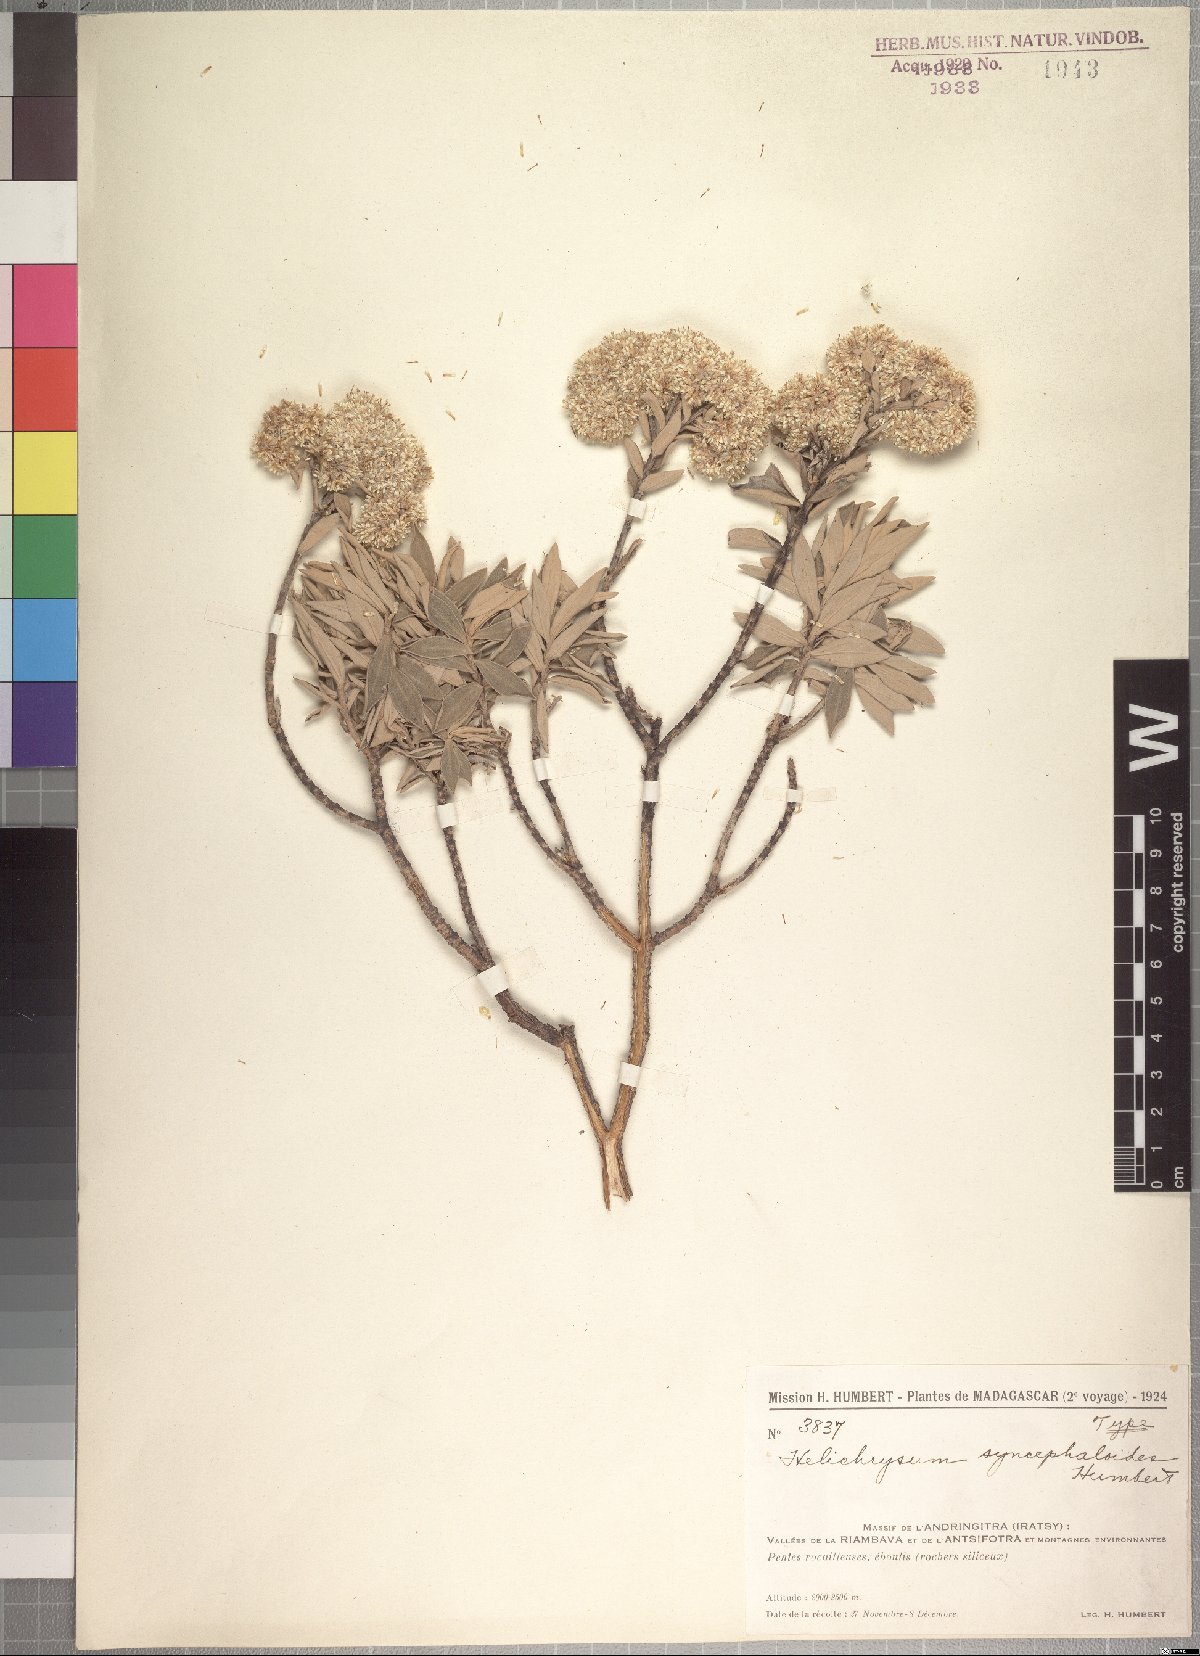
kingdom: Plantae
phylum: Tracheophyta
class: Magnoliopsida
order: Asterales
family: Asteraceae
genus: Helichrysum
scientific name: Helichrysum syncephaloides
